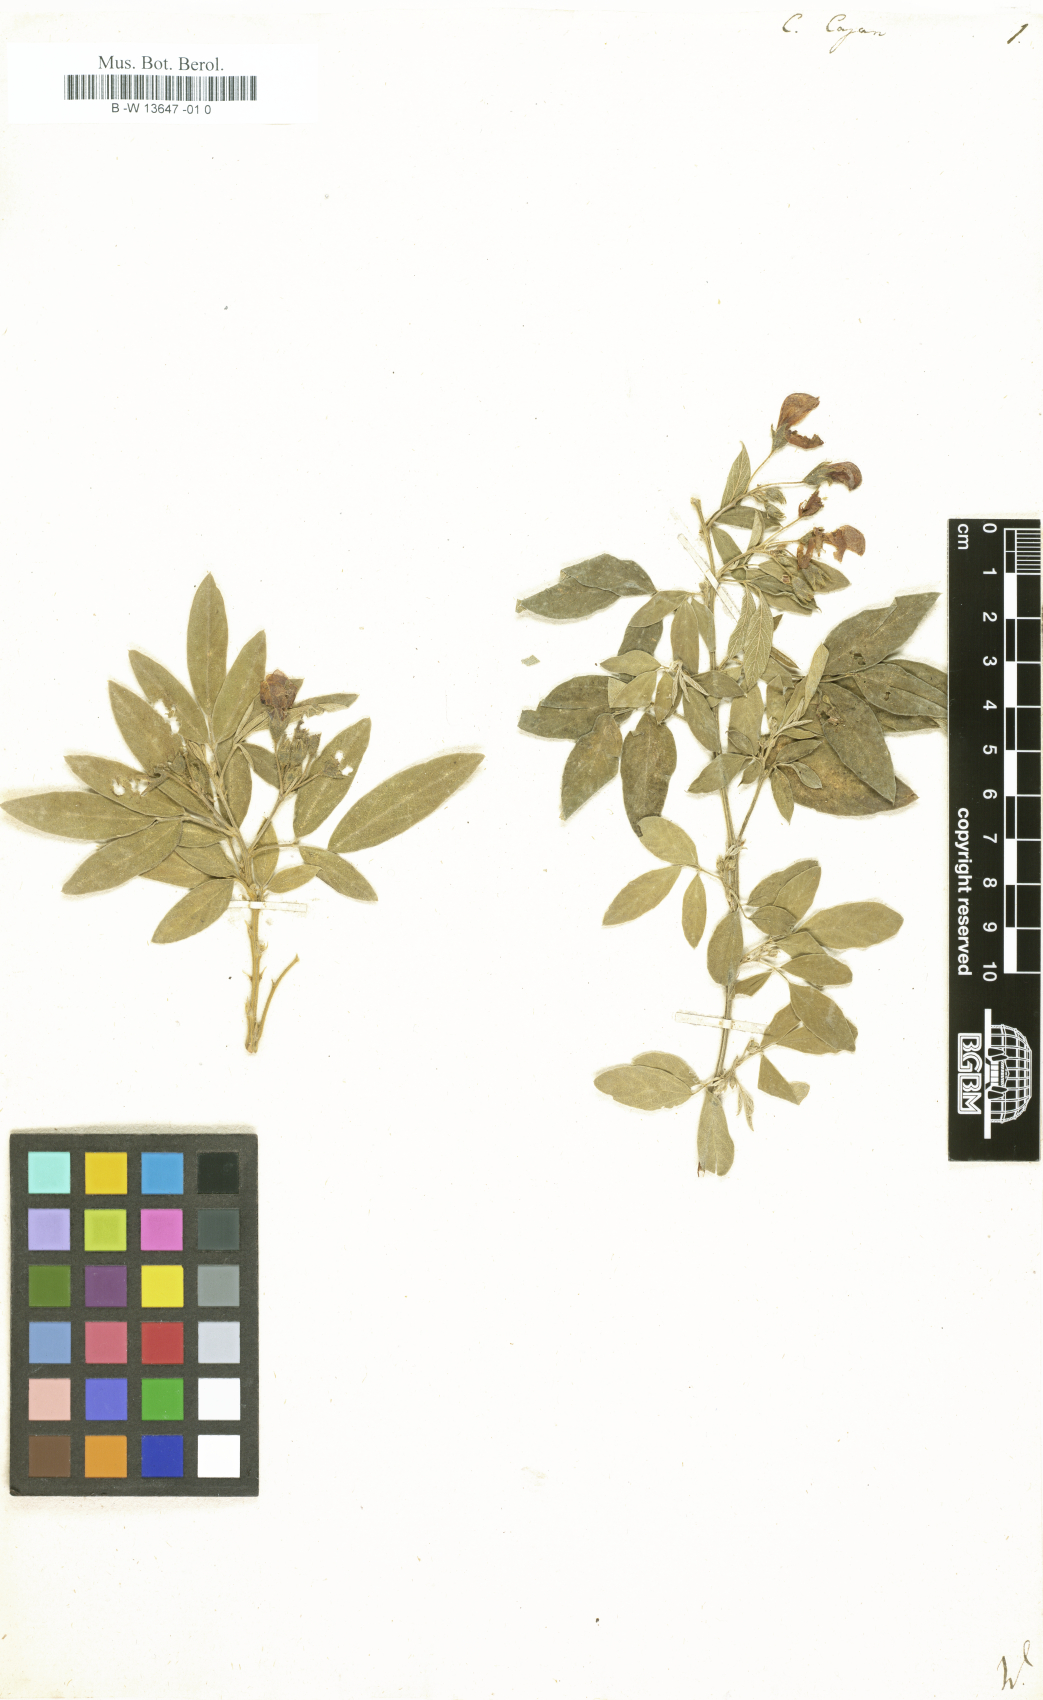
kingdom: Plantae
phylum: Tracheophyta
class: Magnoliopsida
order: Fabales
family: Fabaceae
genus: Cajanus
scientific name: Cajanus cajan
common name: Pigeonpea
